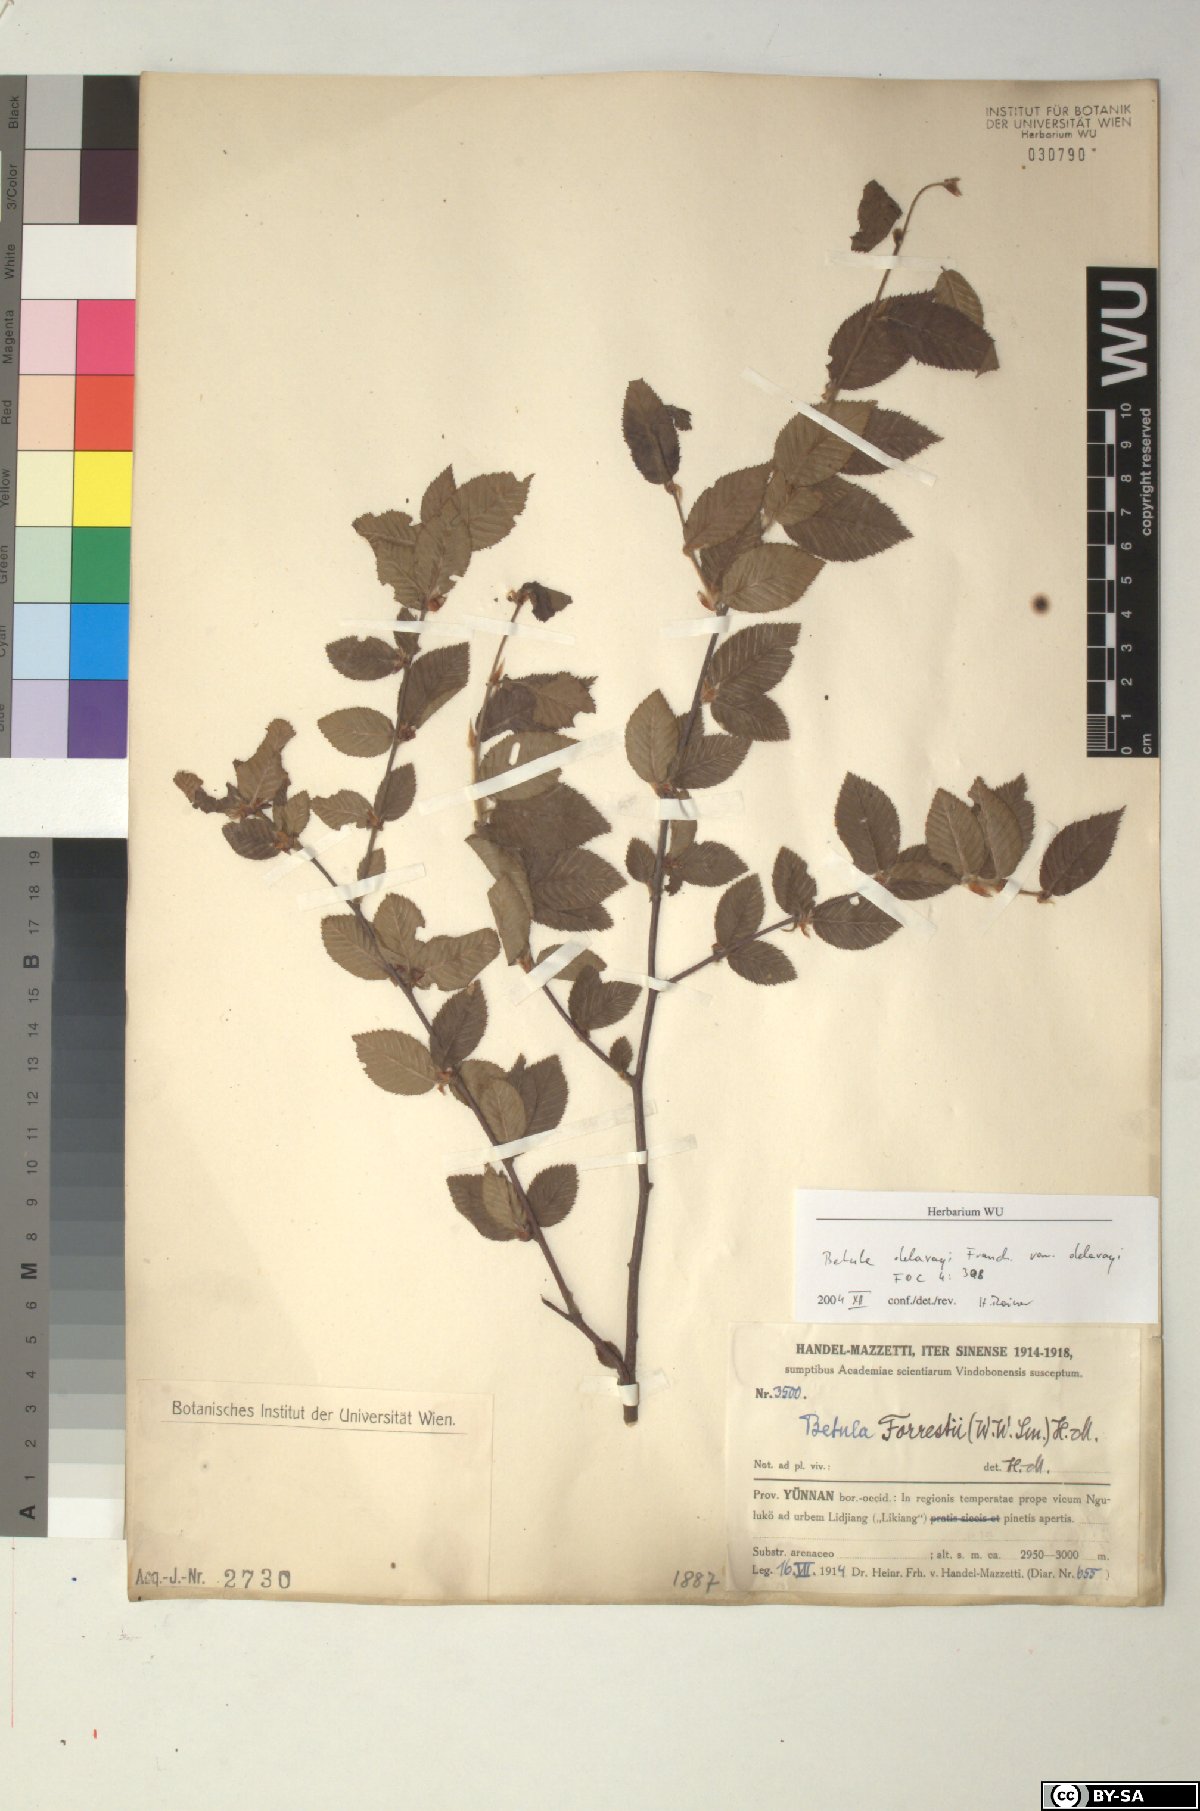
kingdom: Plantae
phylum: Tracheophyta
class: Magnoliopsida
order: Fagales
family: Betulaceae
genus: Betula
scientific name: Betula delavayi
